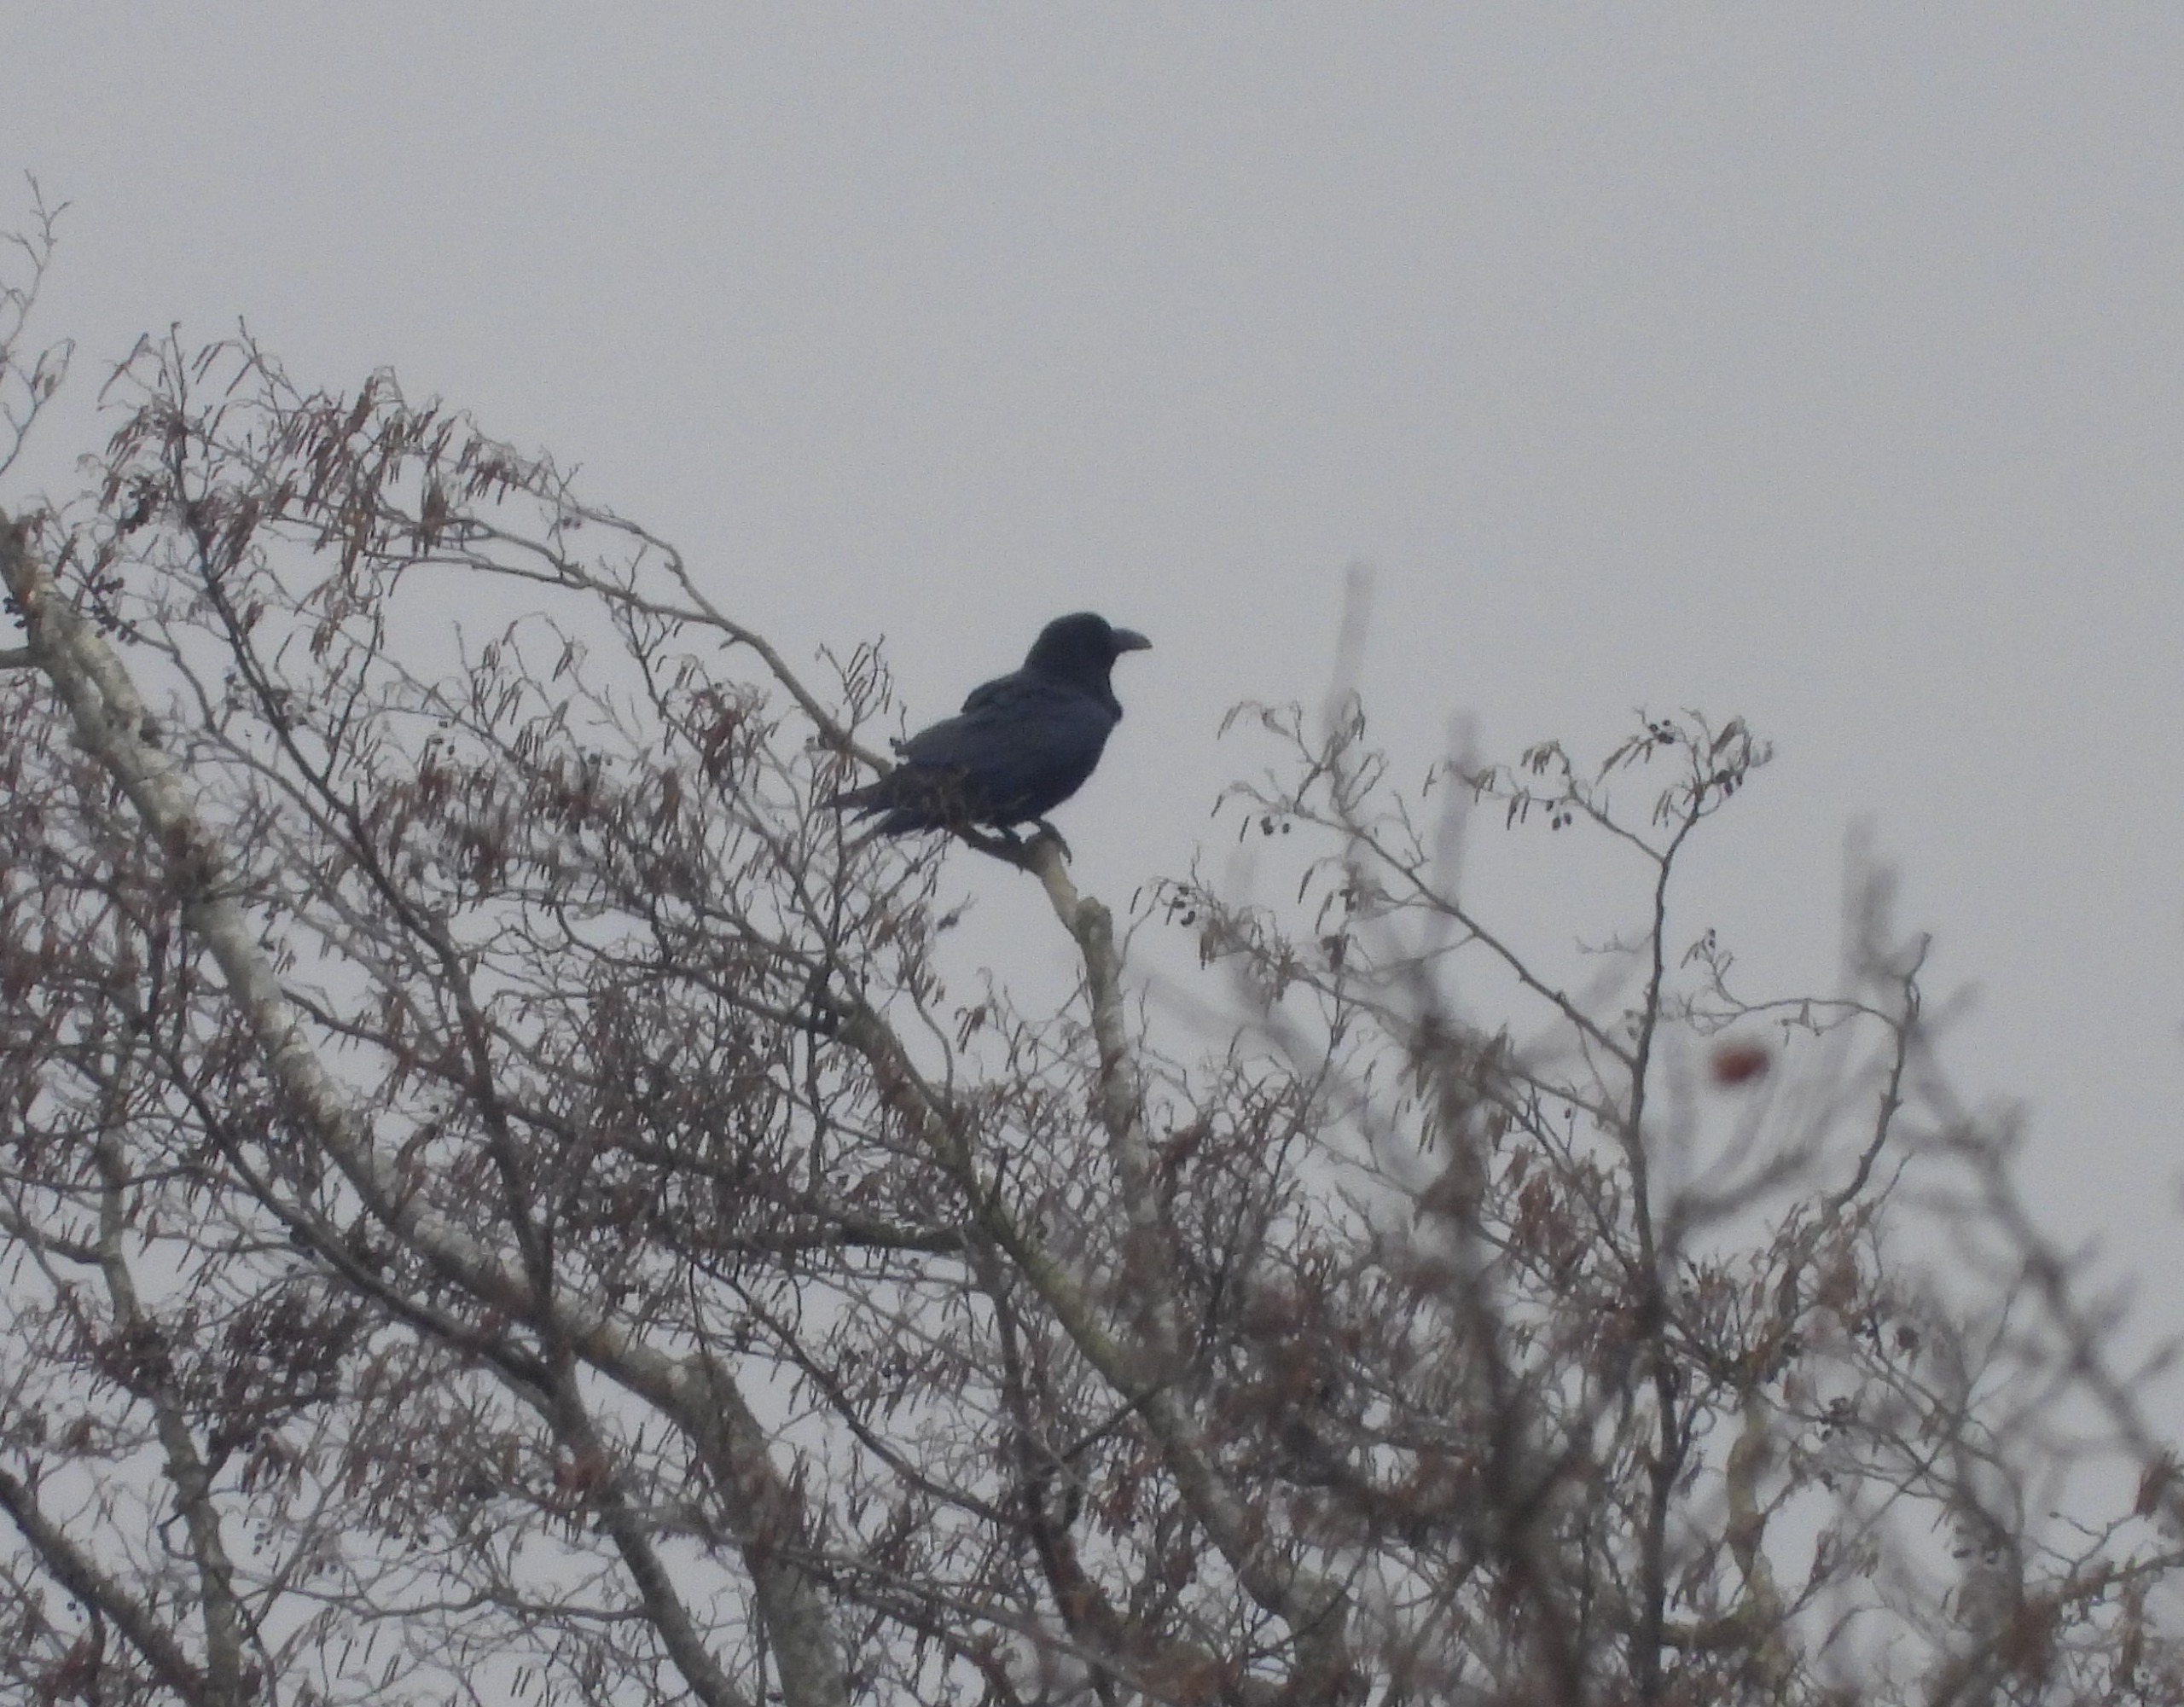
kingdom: Animalia
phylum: Chordata
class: Aves
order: Passeriformes
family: Corvidae
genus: Corvus
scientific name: Corvus corax
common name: Ravn
